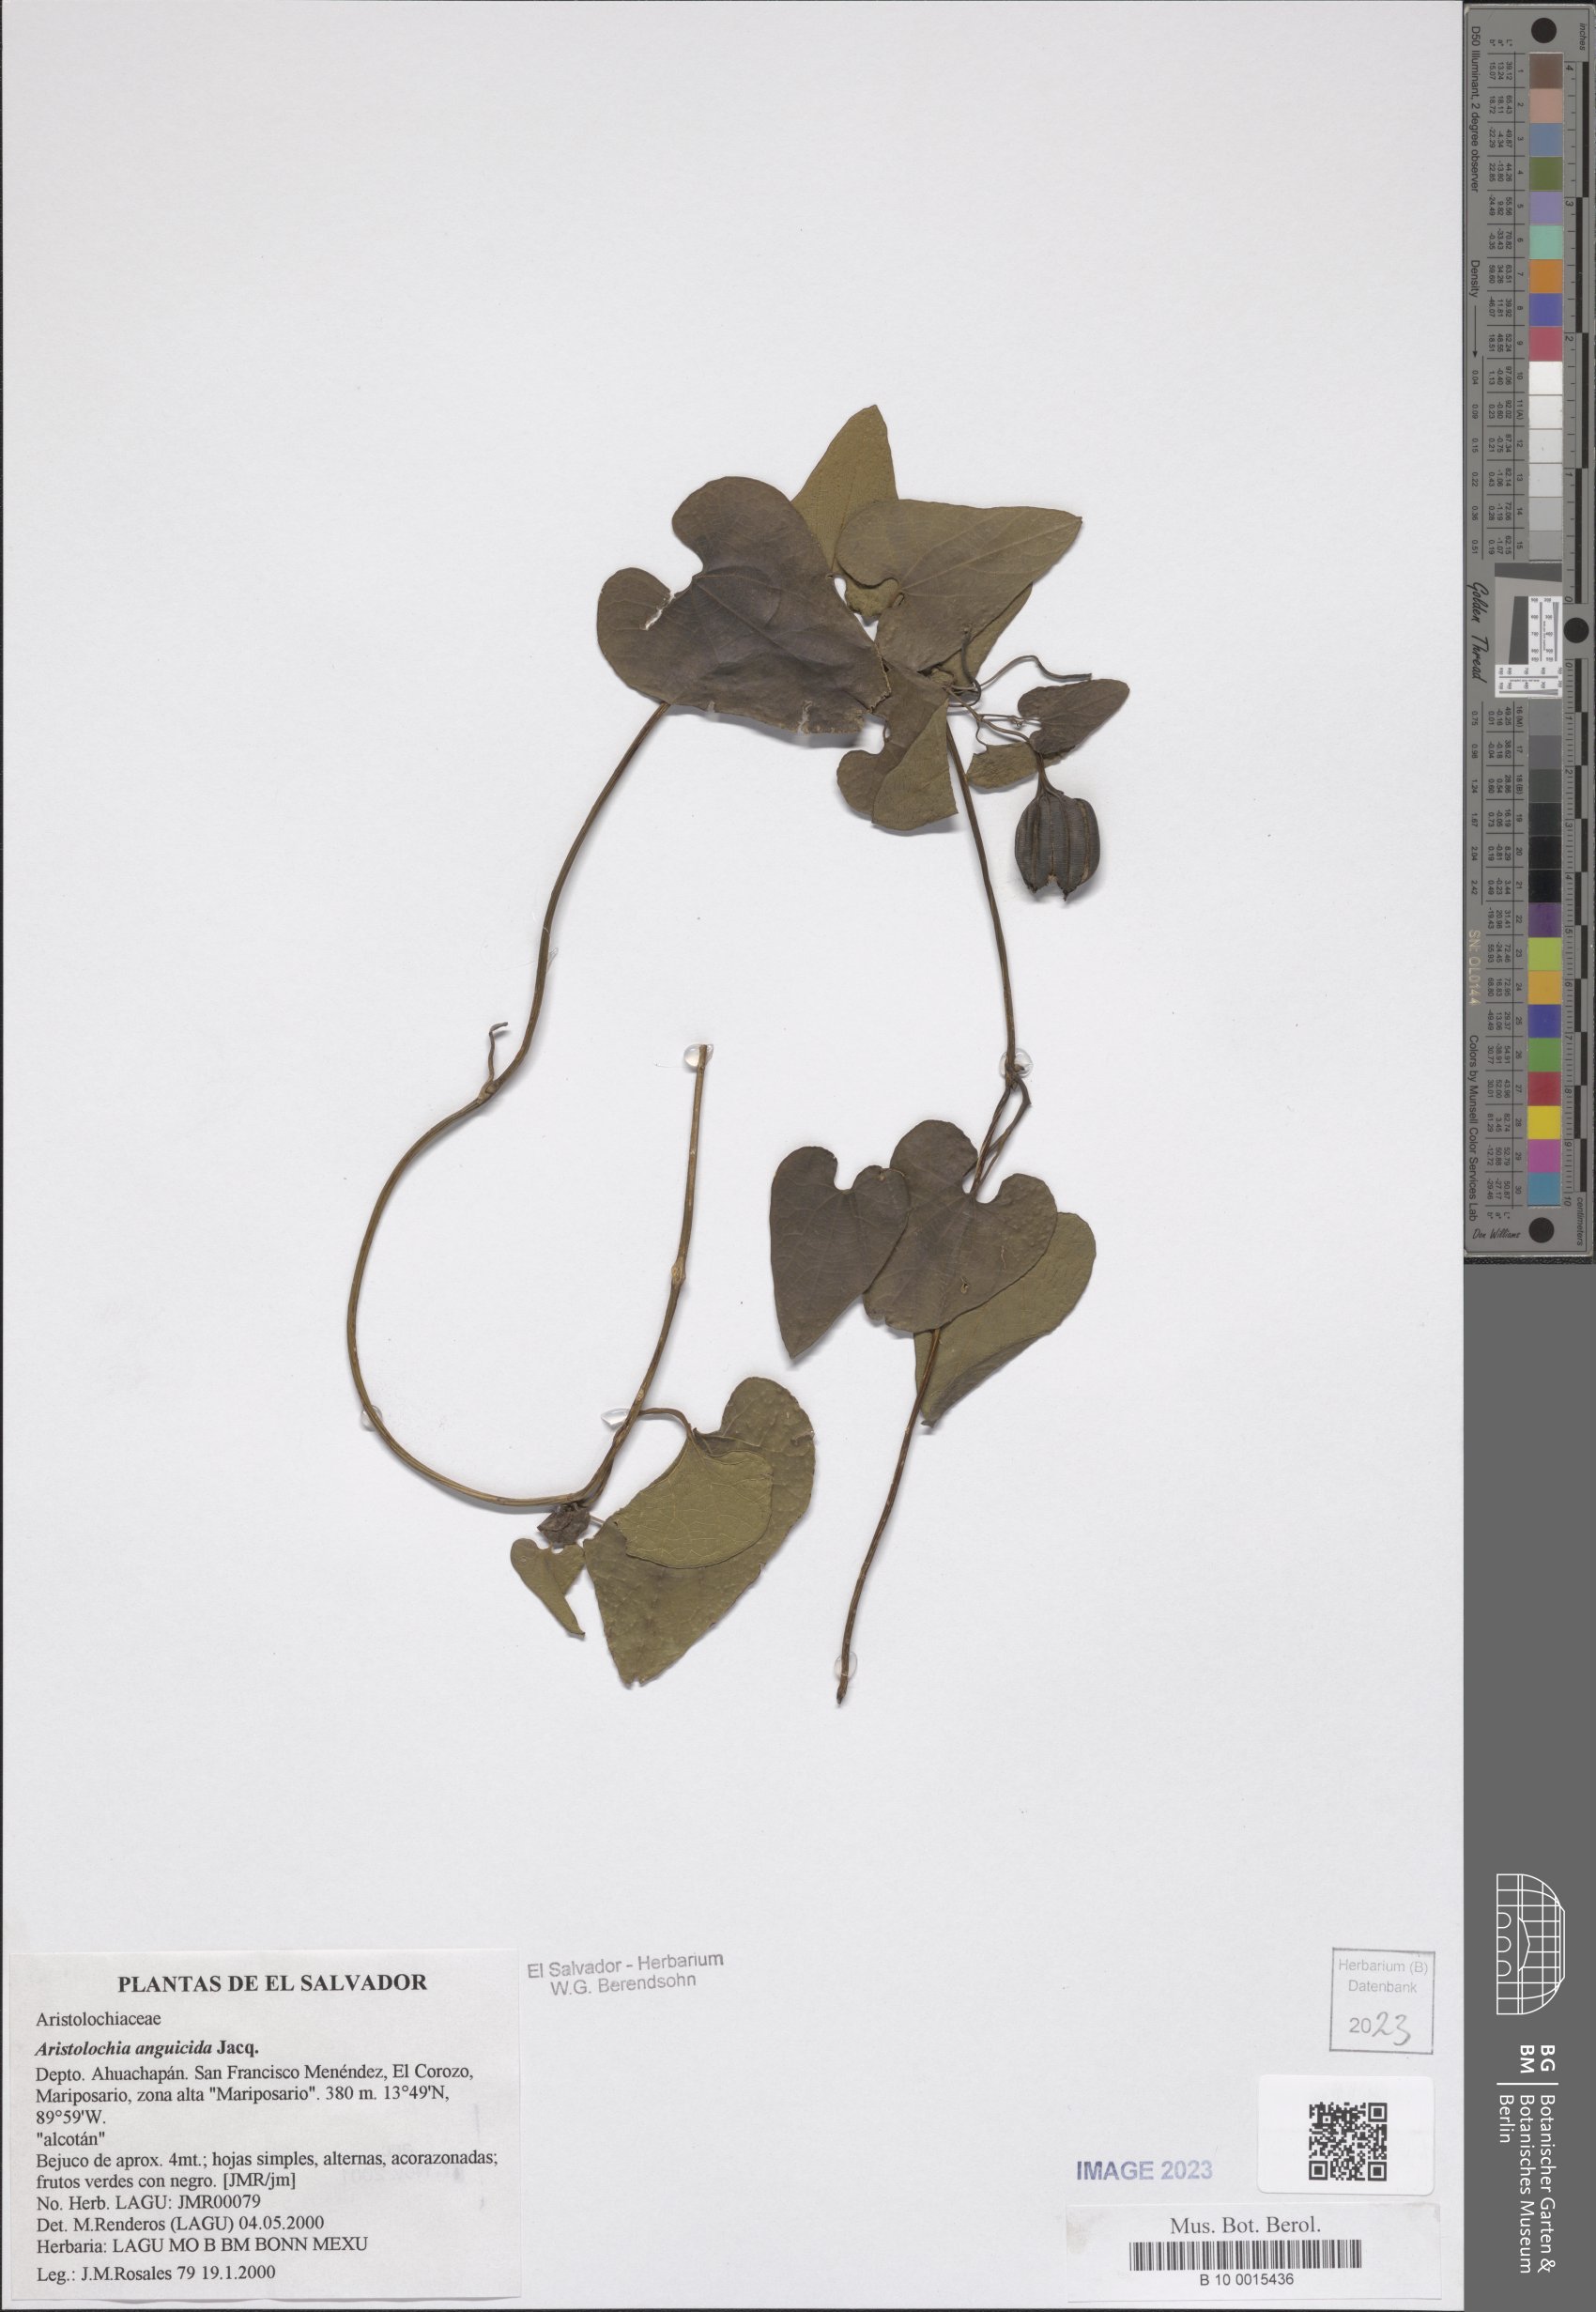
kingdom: Plantae
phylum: Tracheophyta
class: Magnoliopsida
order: Piperales
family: Aristolochiaceae
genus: Aristolochia
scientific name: Aristolochia anguicida
